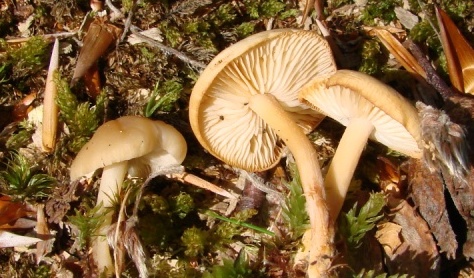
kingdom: Fungi
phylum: Basidiomycota
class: Agaricomycetes
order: Agaricales
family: Omphalotaceae
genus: Gymnopus
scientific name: Gymnopus dryophilus
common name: løv-fladhat
